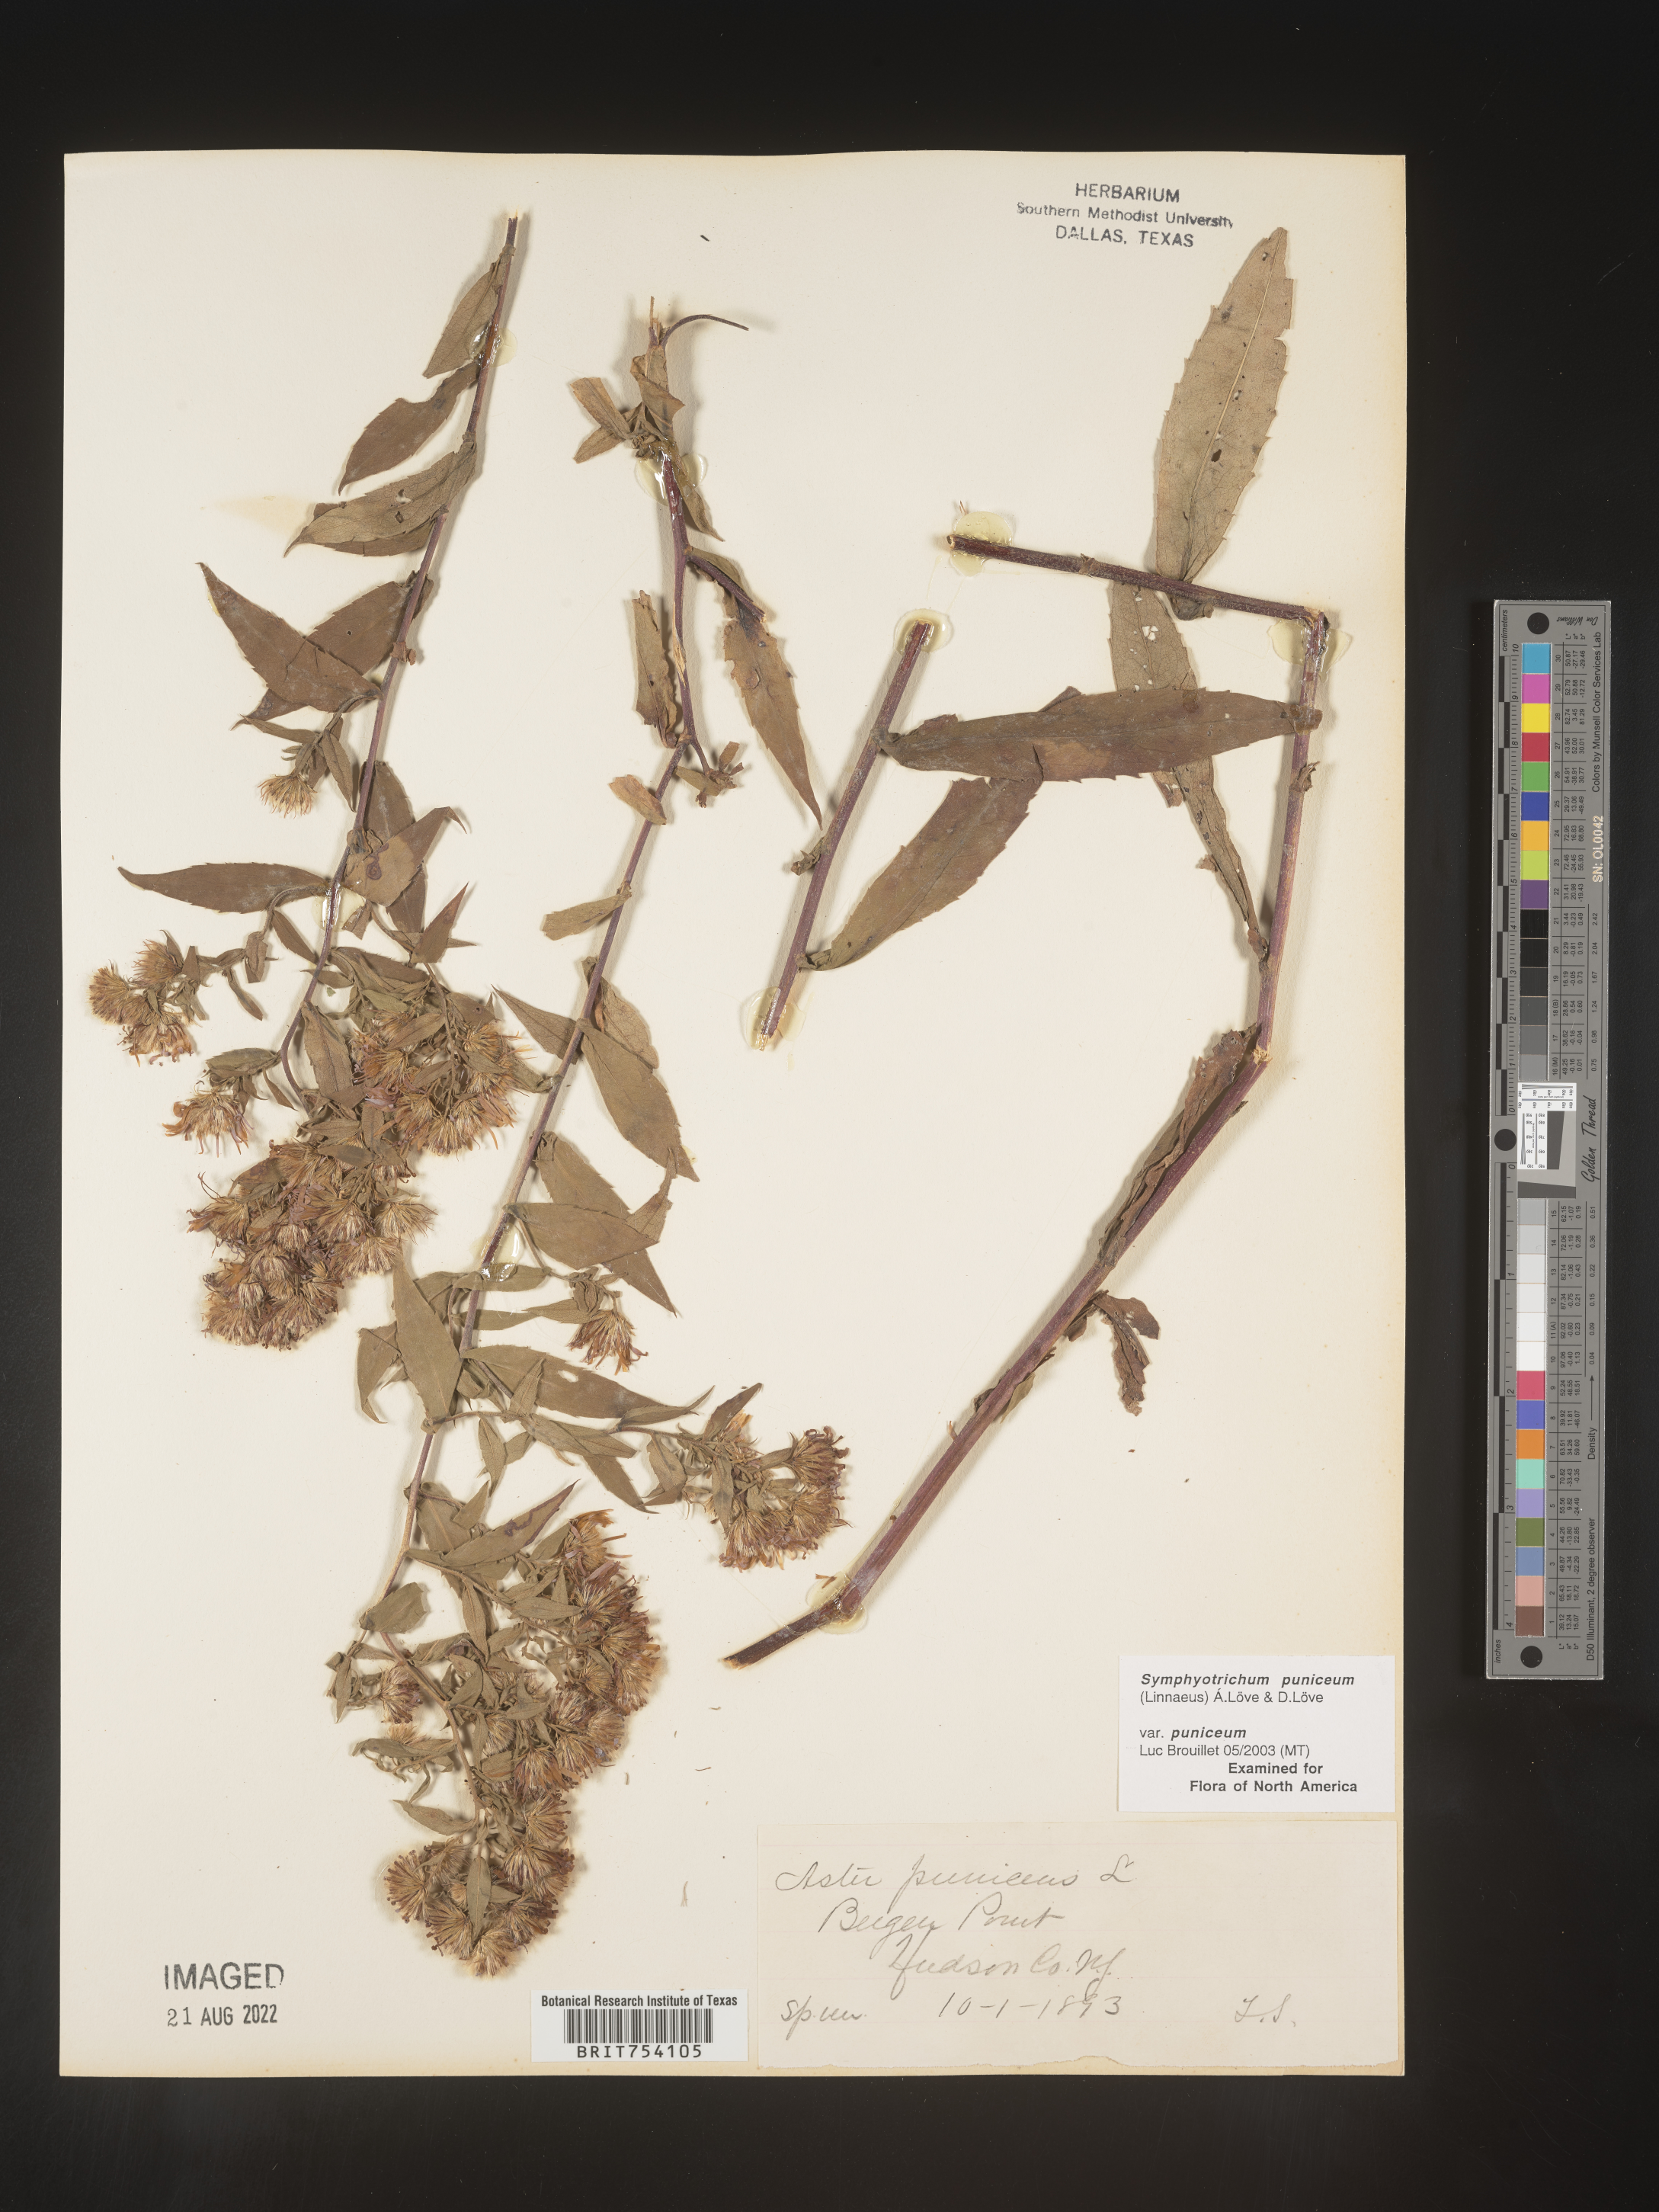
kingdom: Plantae
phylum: Tracheophyta
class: Magnoliopsida
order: Asterales
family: Asteraceae
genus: Symphyotrichum
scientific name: Symphyotrichum puniceum
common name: Bog aster
